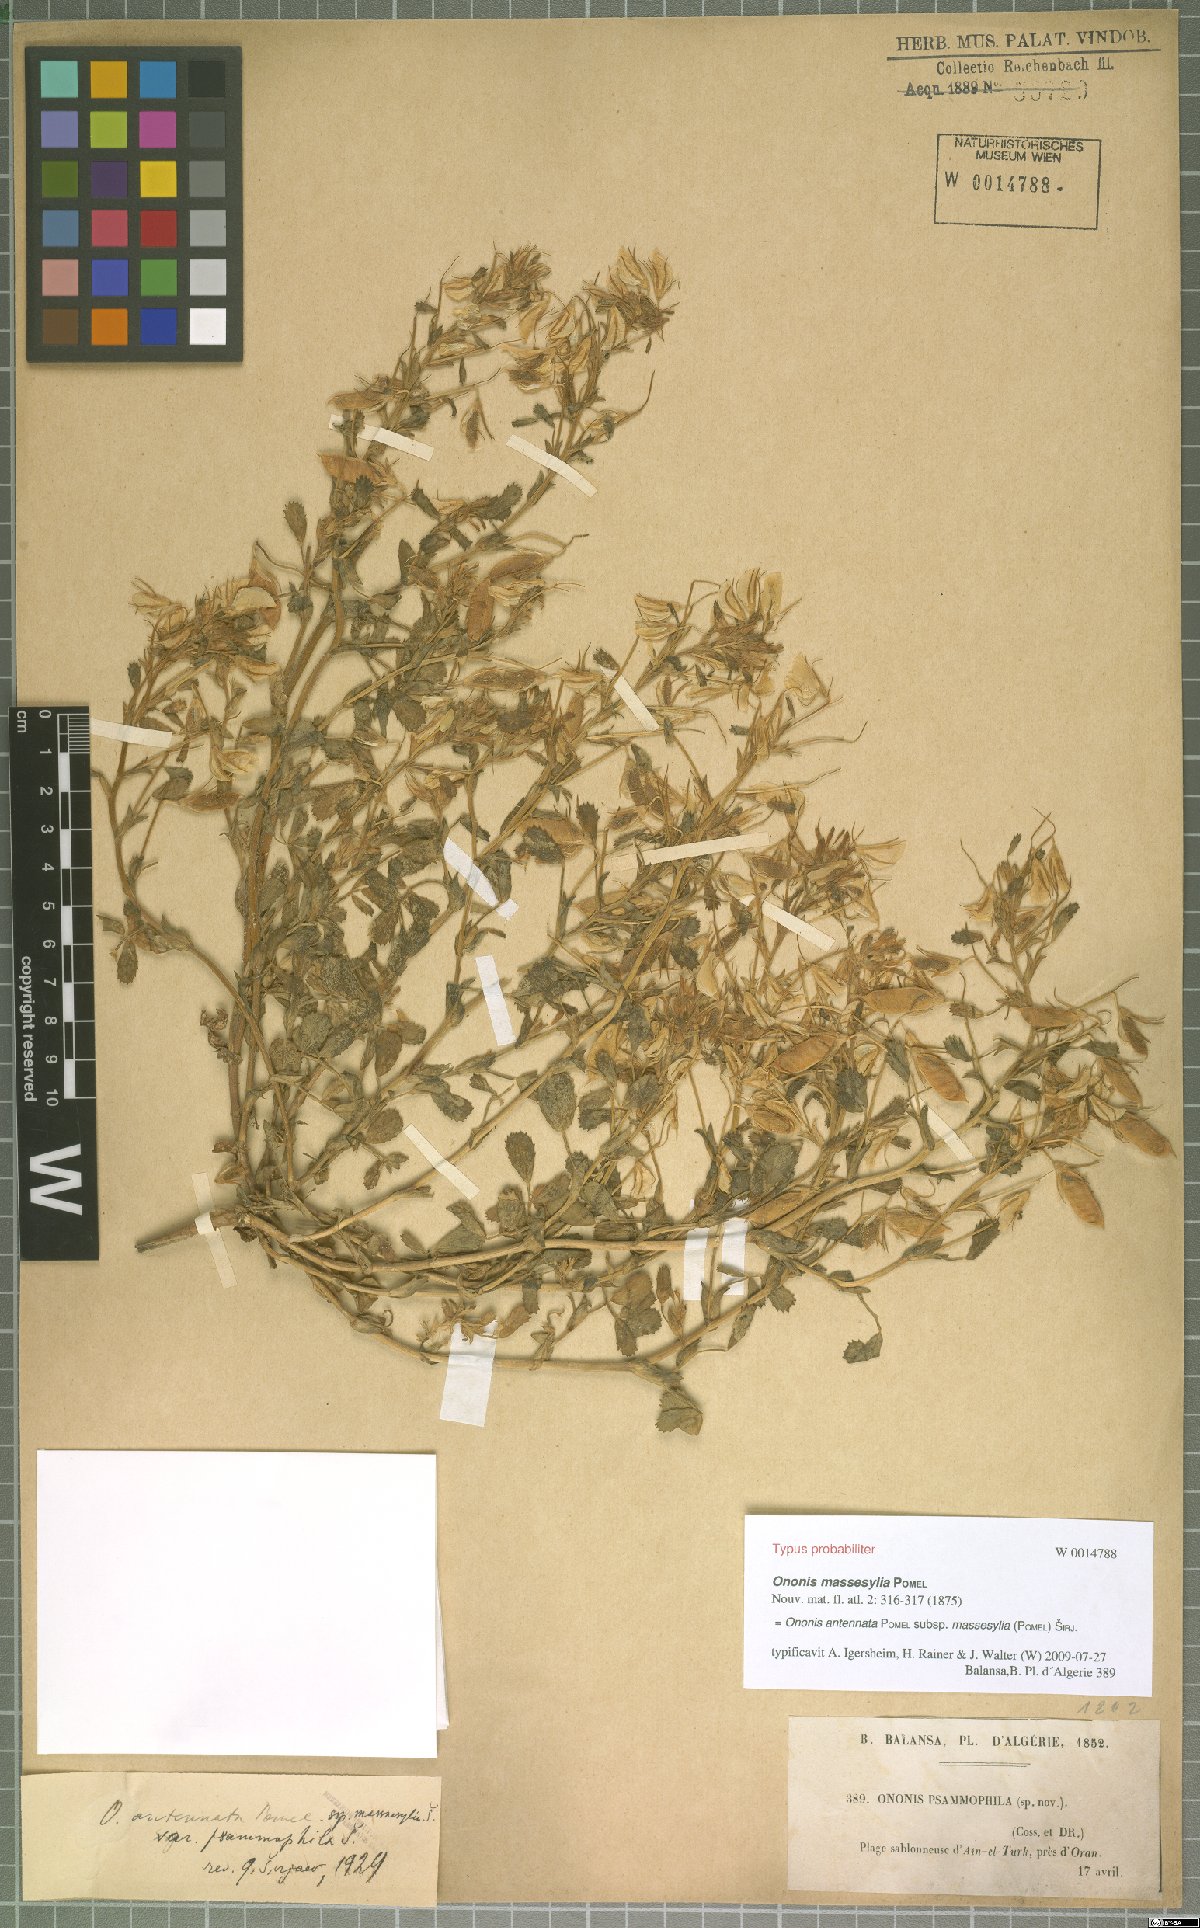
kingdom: Plantae
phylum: Tracheophyta
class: Magnoliopsida
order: Fabales
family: Fabaceae
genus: Ononis
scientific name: Ononis antennata
